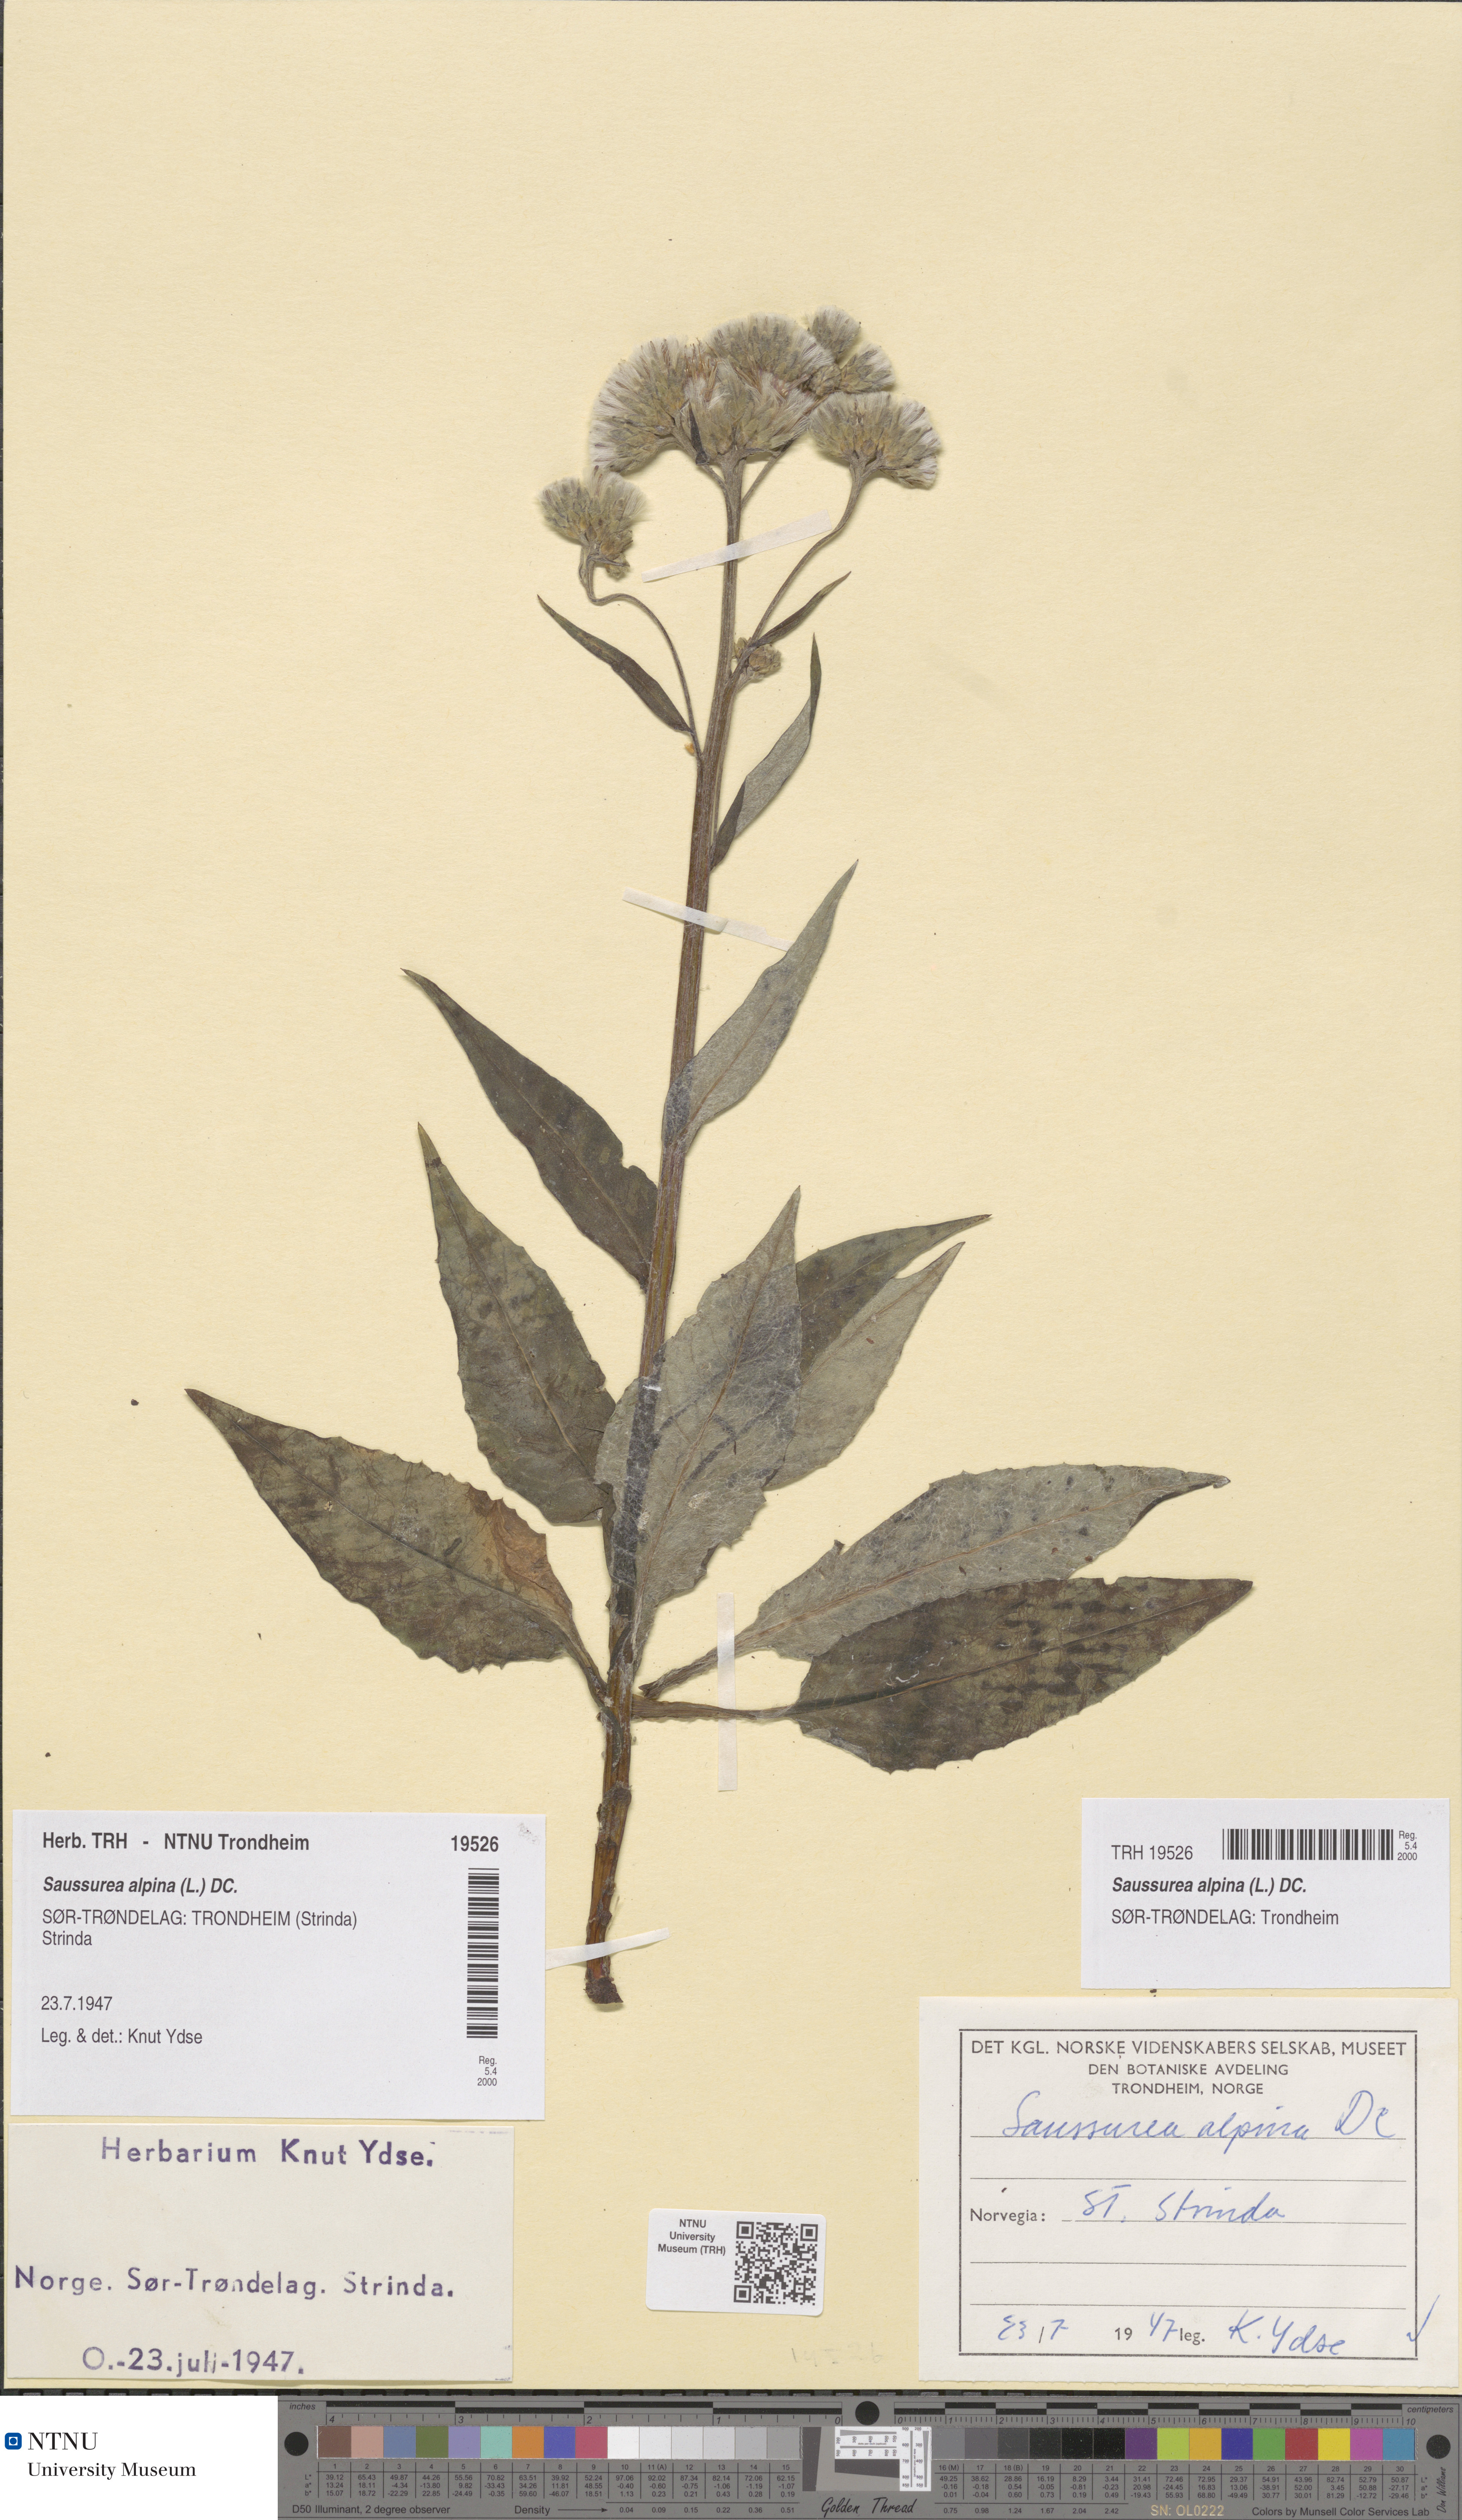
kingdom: Plantae
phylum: Tracheophyta
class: Magnoliopsida
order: Asterales
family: Asteraceae
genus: Saussurea
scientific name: Saussurea alpina
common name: Alpine saw-wort
